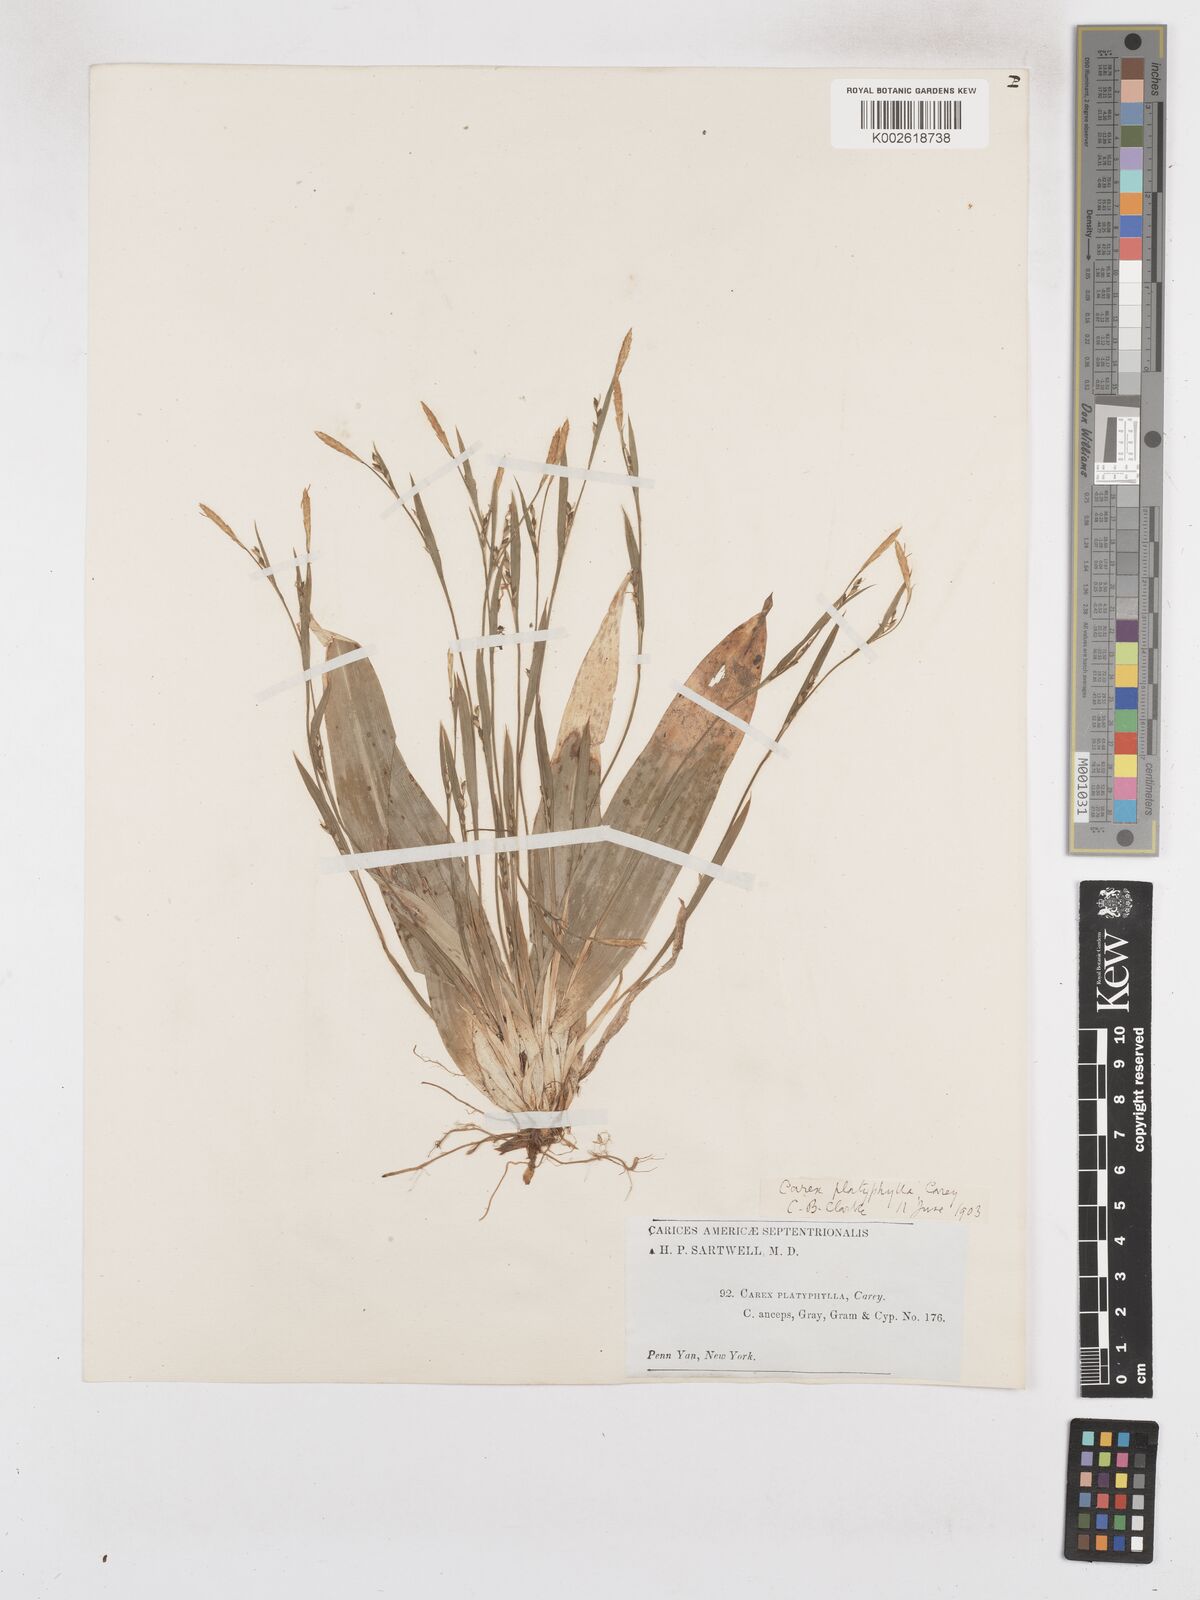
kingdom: Plantae
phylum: Tracheophyta
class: Liliopsida
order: Poales
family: Cyperaceae
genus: Carex
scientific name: Carex platyphylla
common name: Broad-leaved sedge
